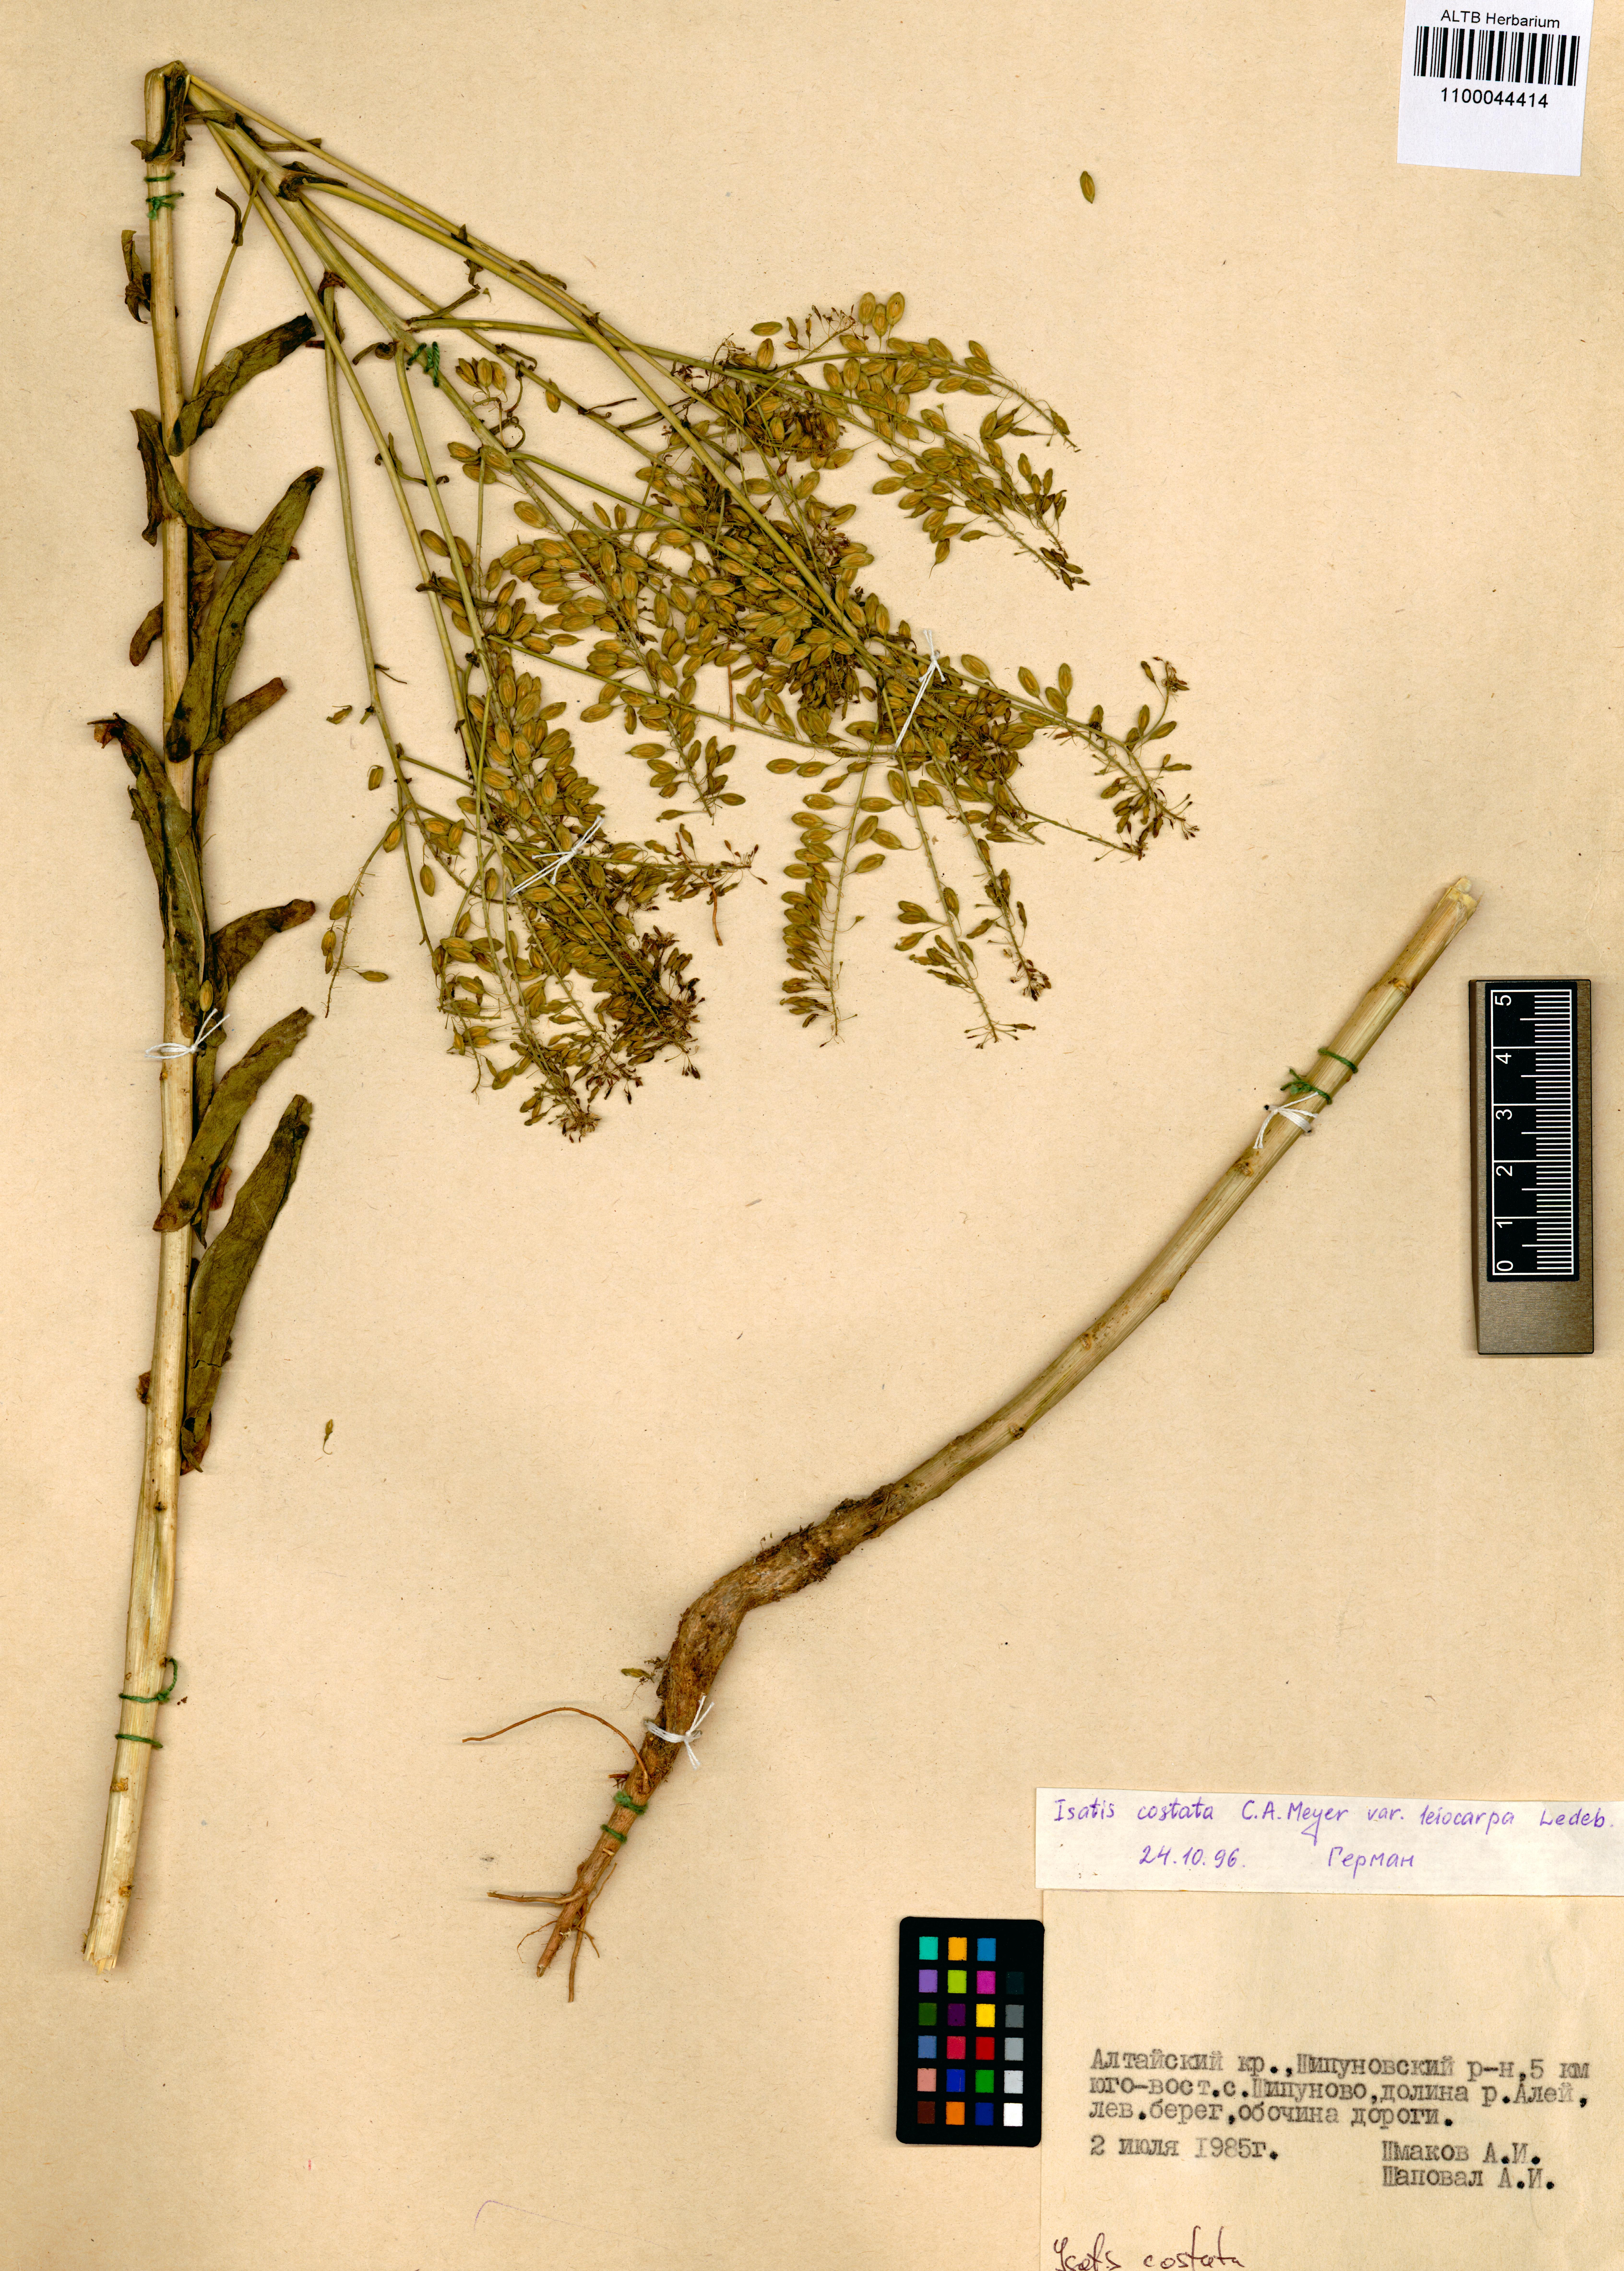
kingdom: Plantae
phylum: Tracheophyta
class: Magnoliopsida
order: Brassicales
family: Brassicaceae
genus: Isatis
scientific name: Isatis costata
